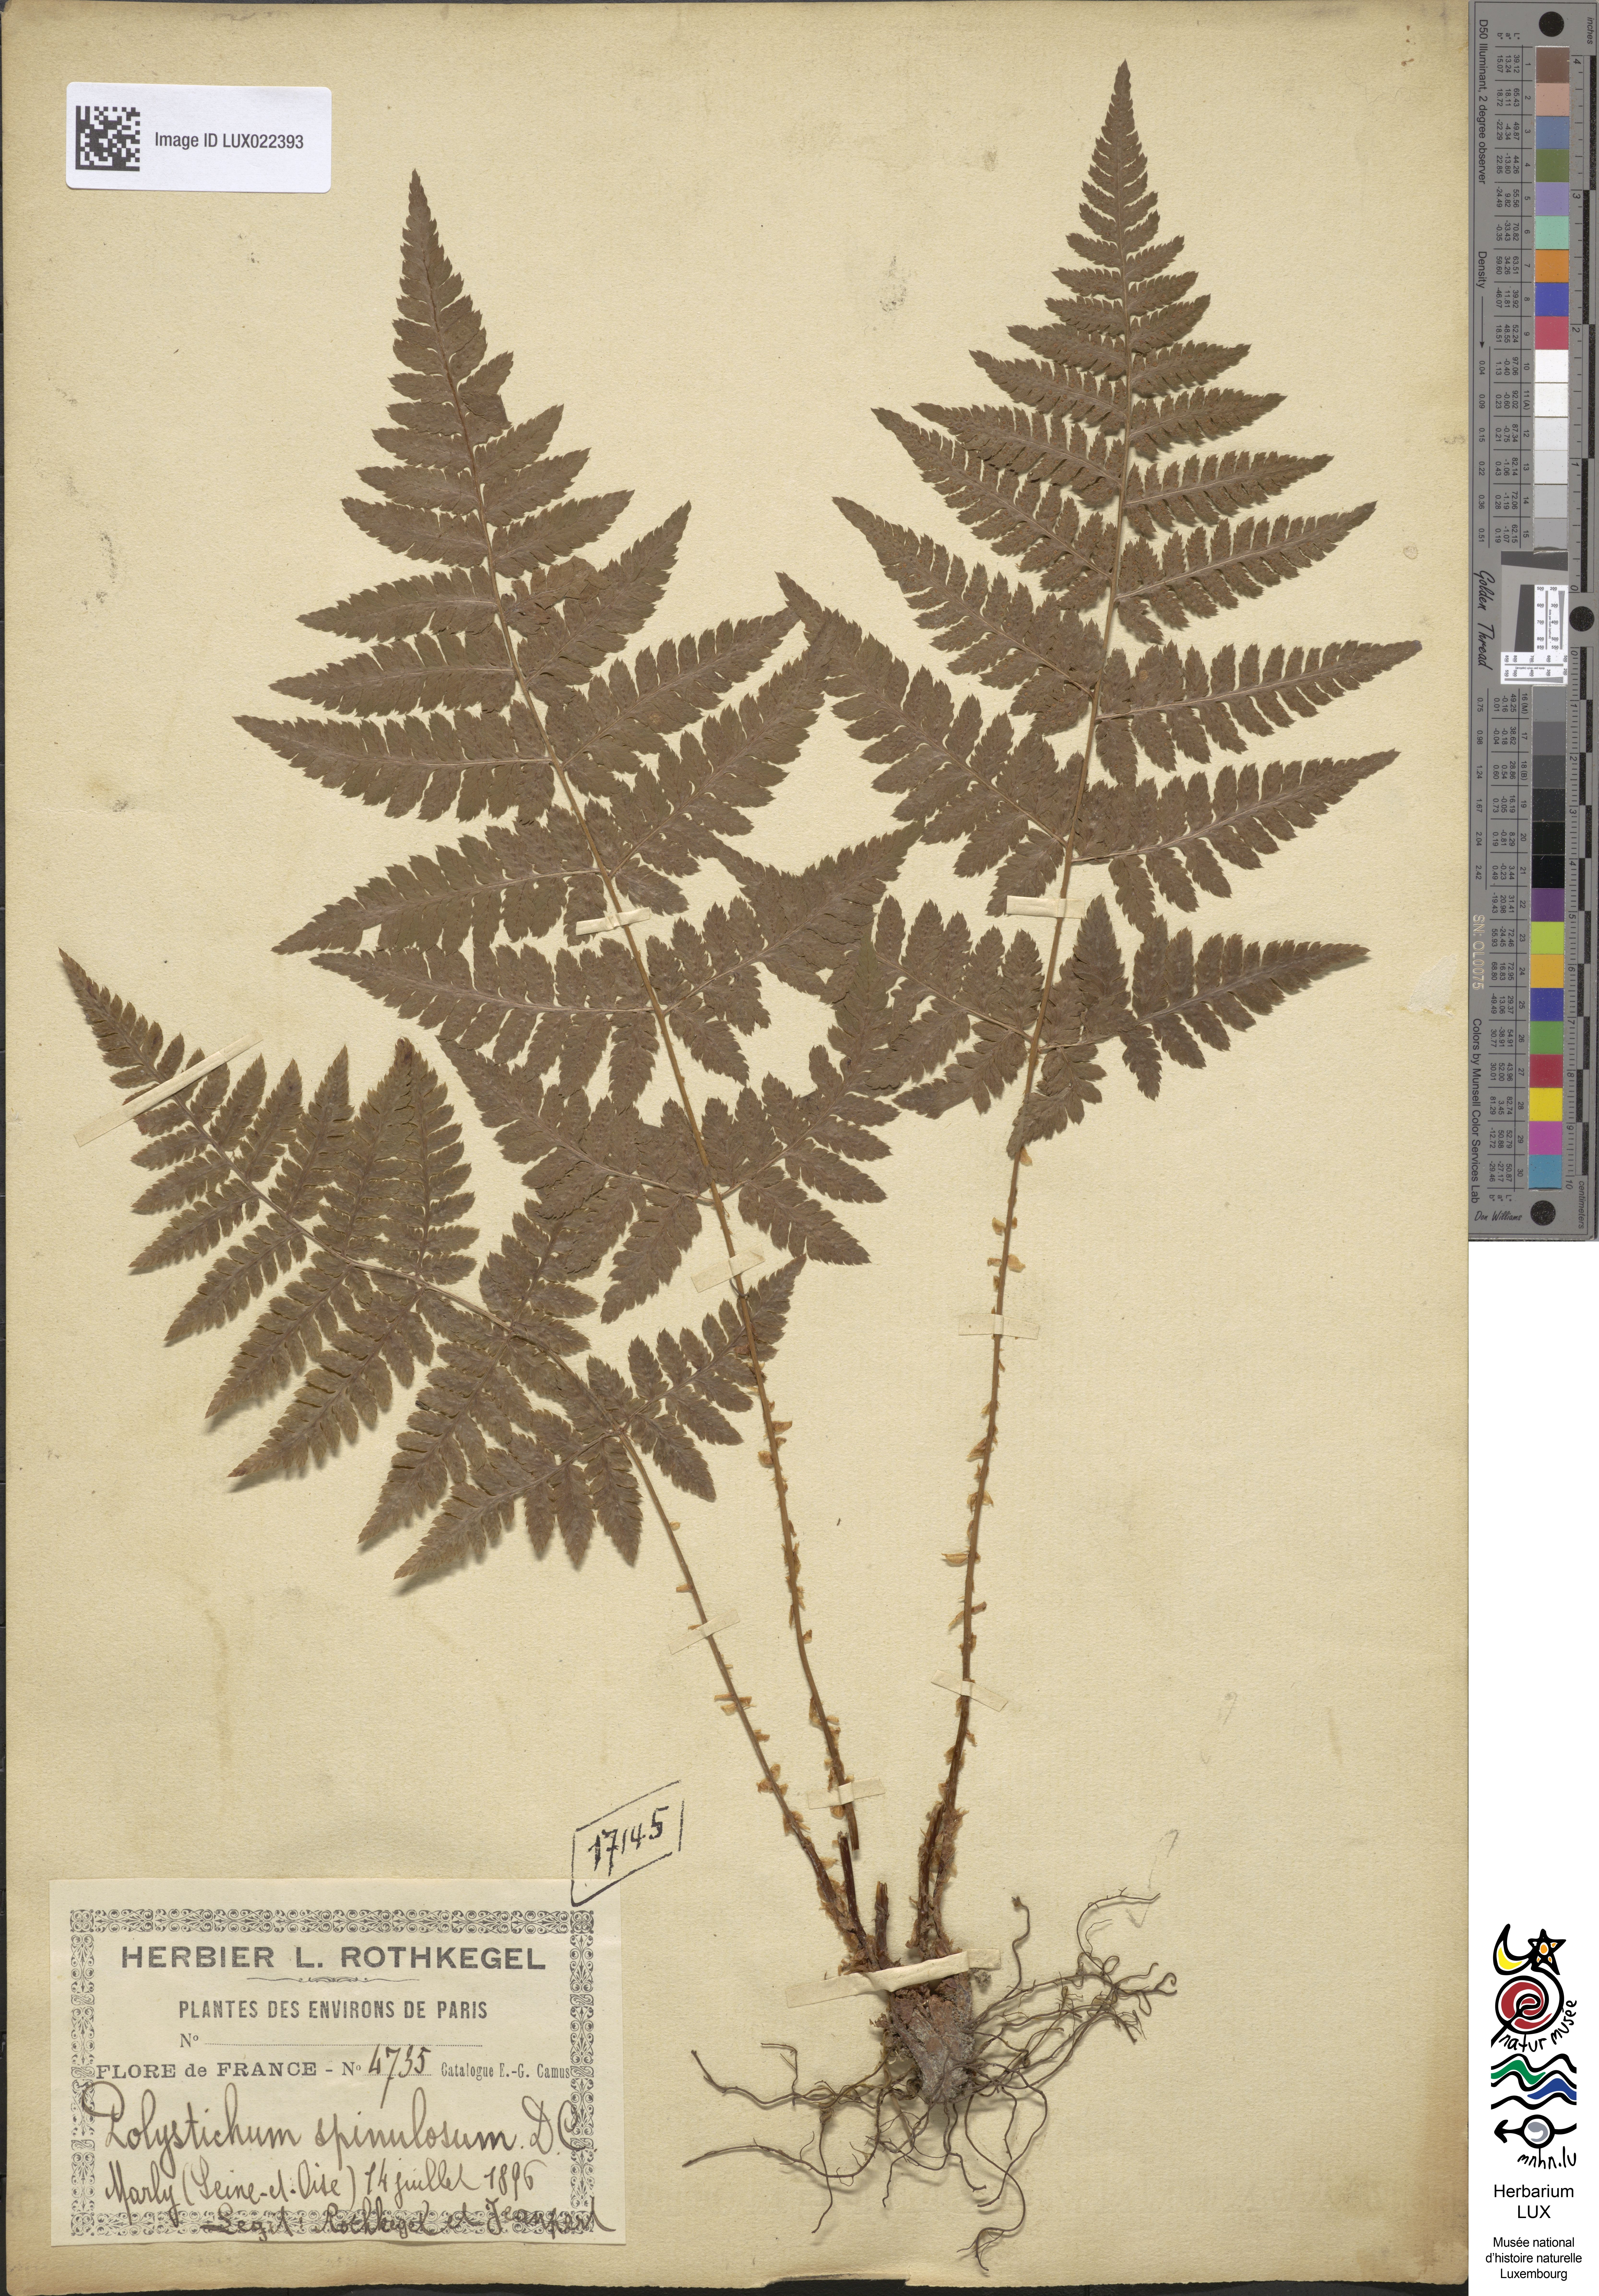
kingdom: Plantae
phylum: Tracheophyta
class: Polypodiopsida
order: Polypodiales
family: Dryopteridaceae
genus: Dryopteris
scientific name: Dryopteris carthusiana
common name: Narrow buckler-fern
